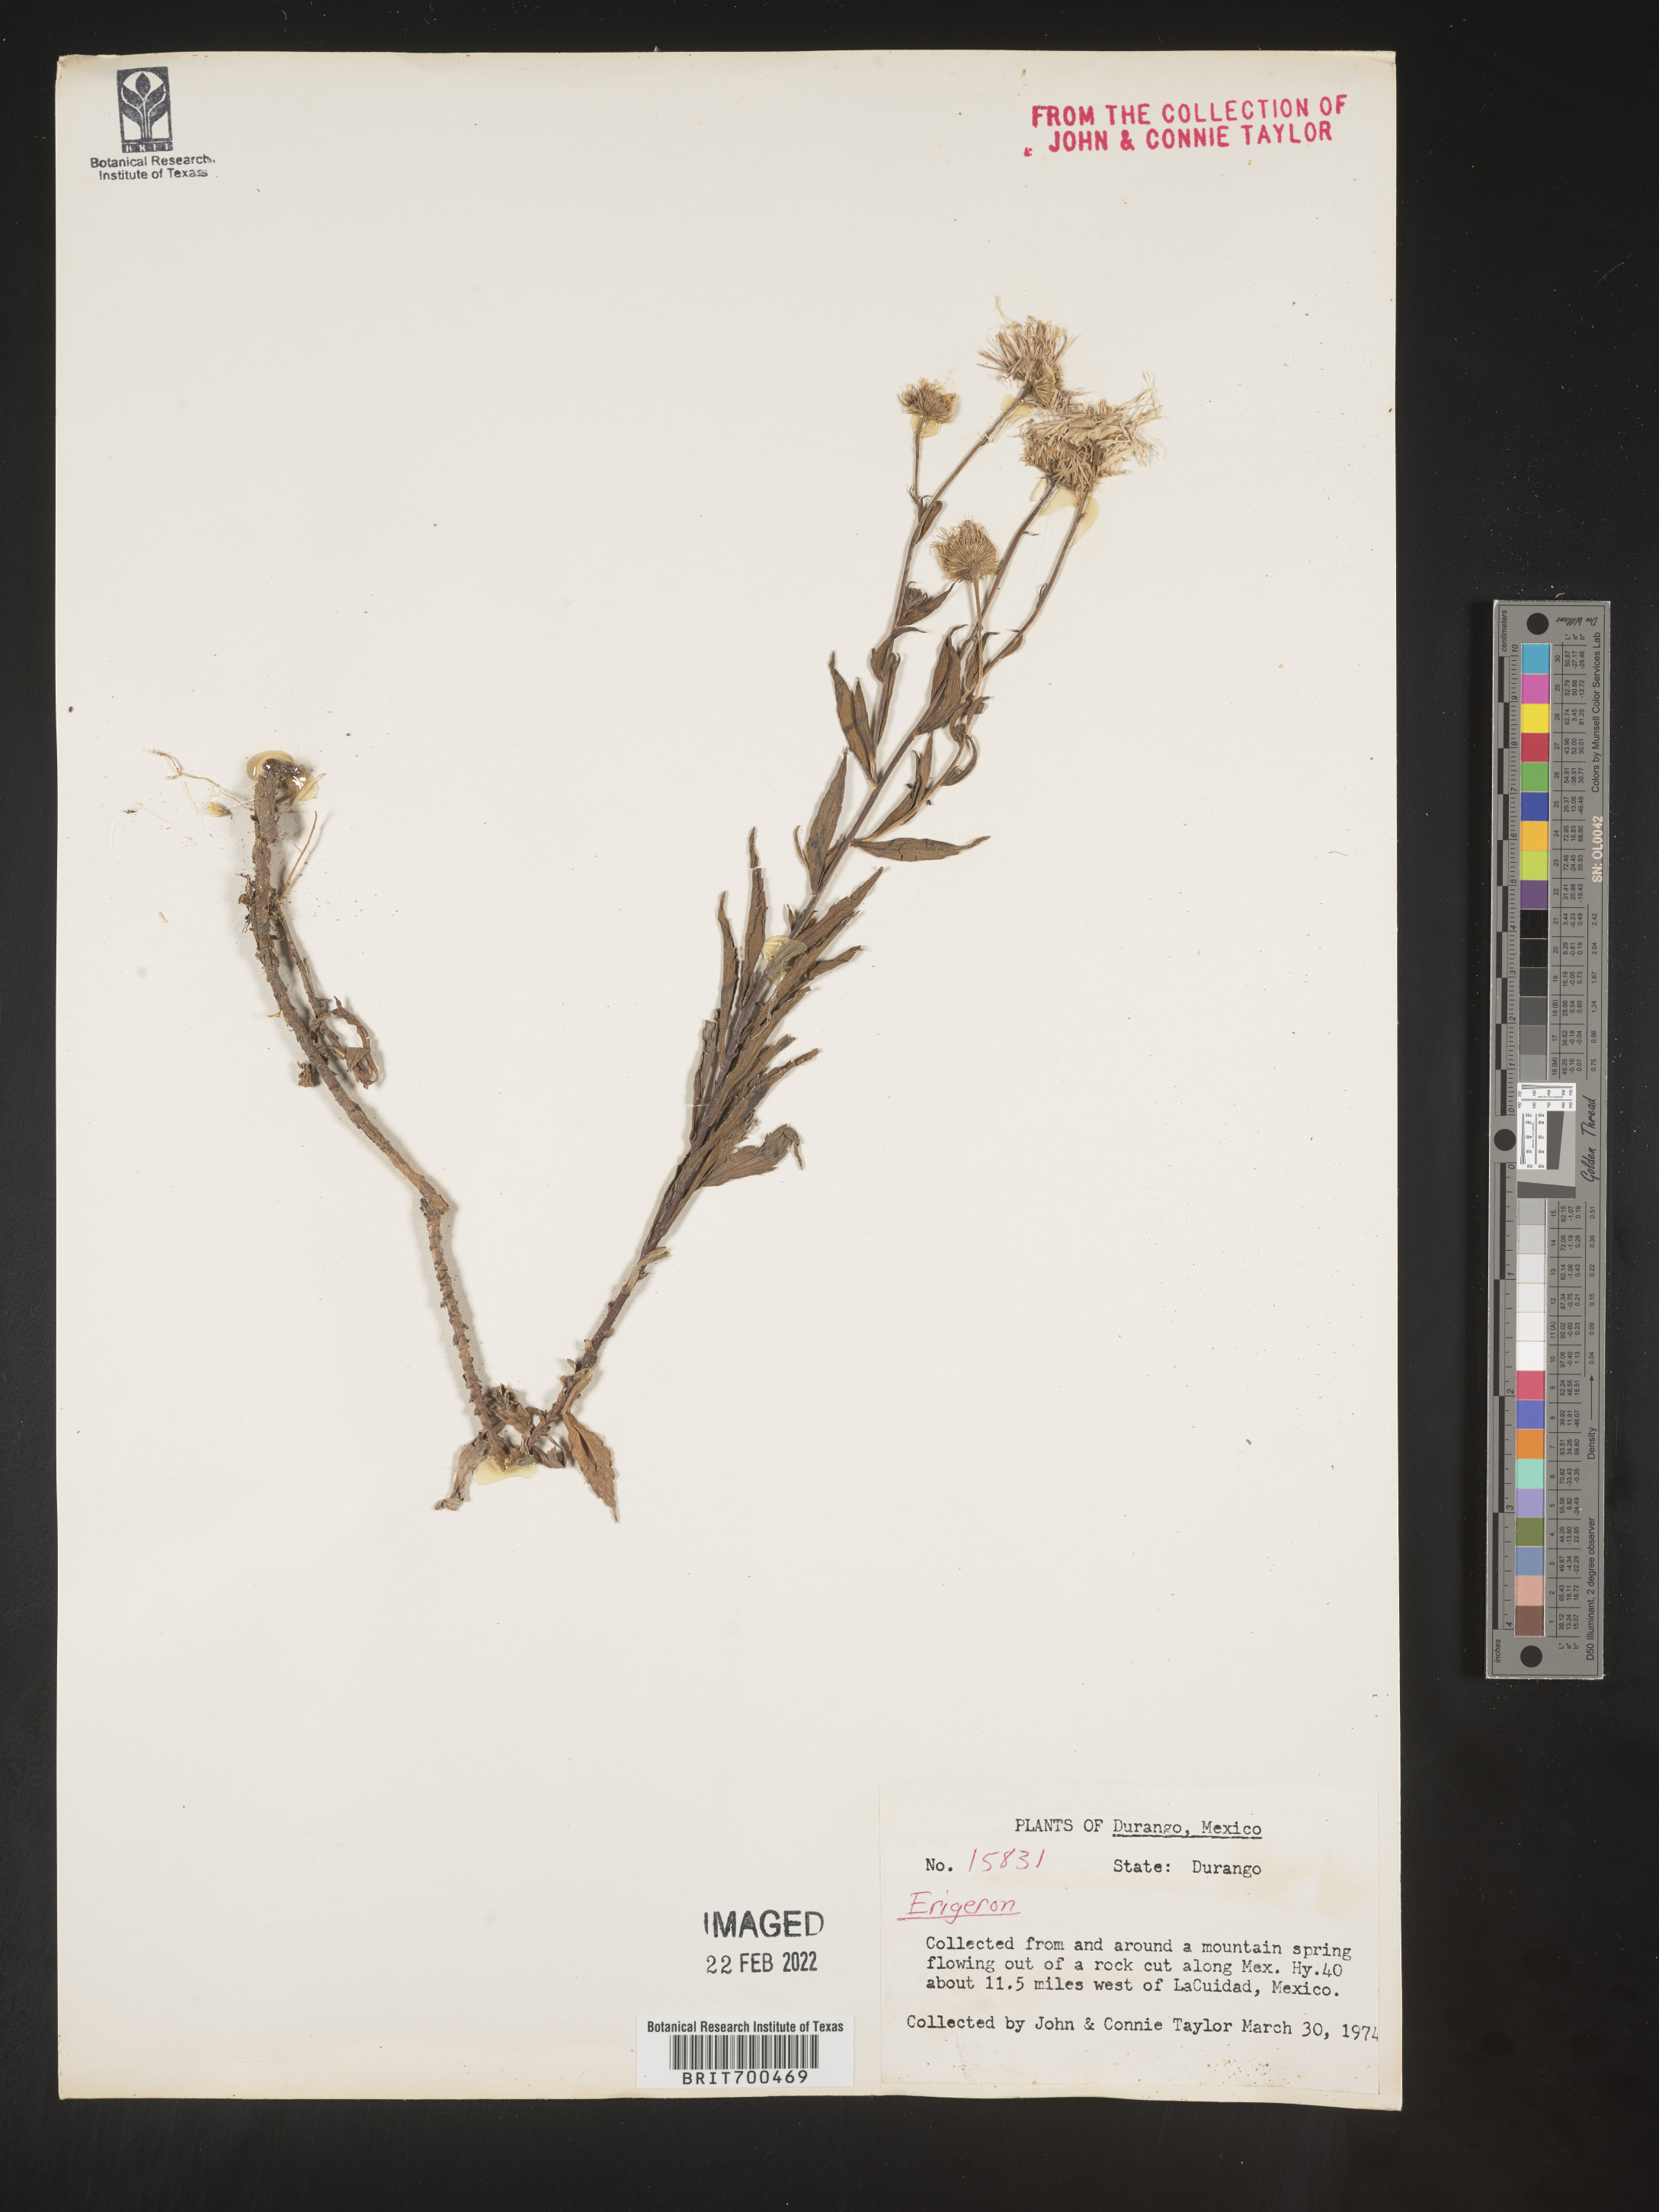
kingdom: Plantae
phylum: Tracheophyta
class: Magnoliopsida
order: Asterales
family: Asteraceae
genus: Erigeron
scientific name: Erigeron
